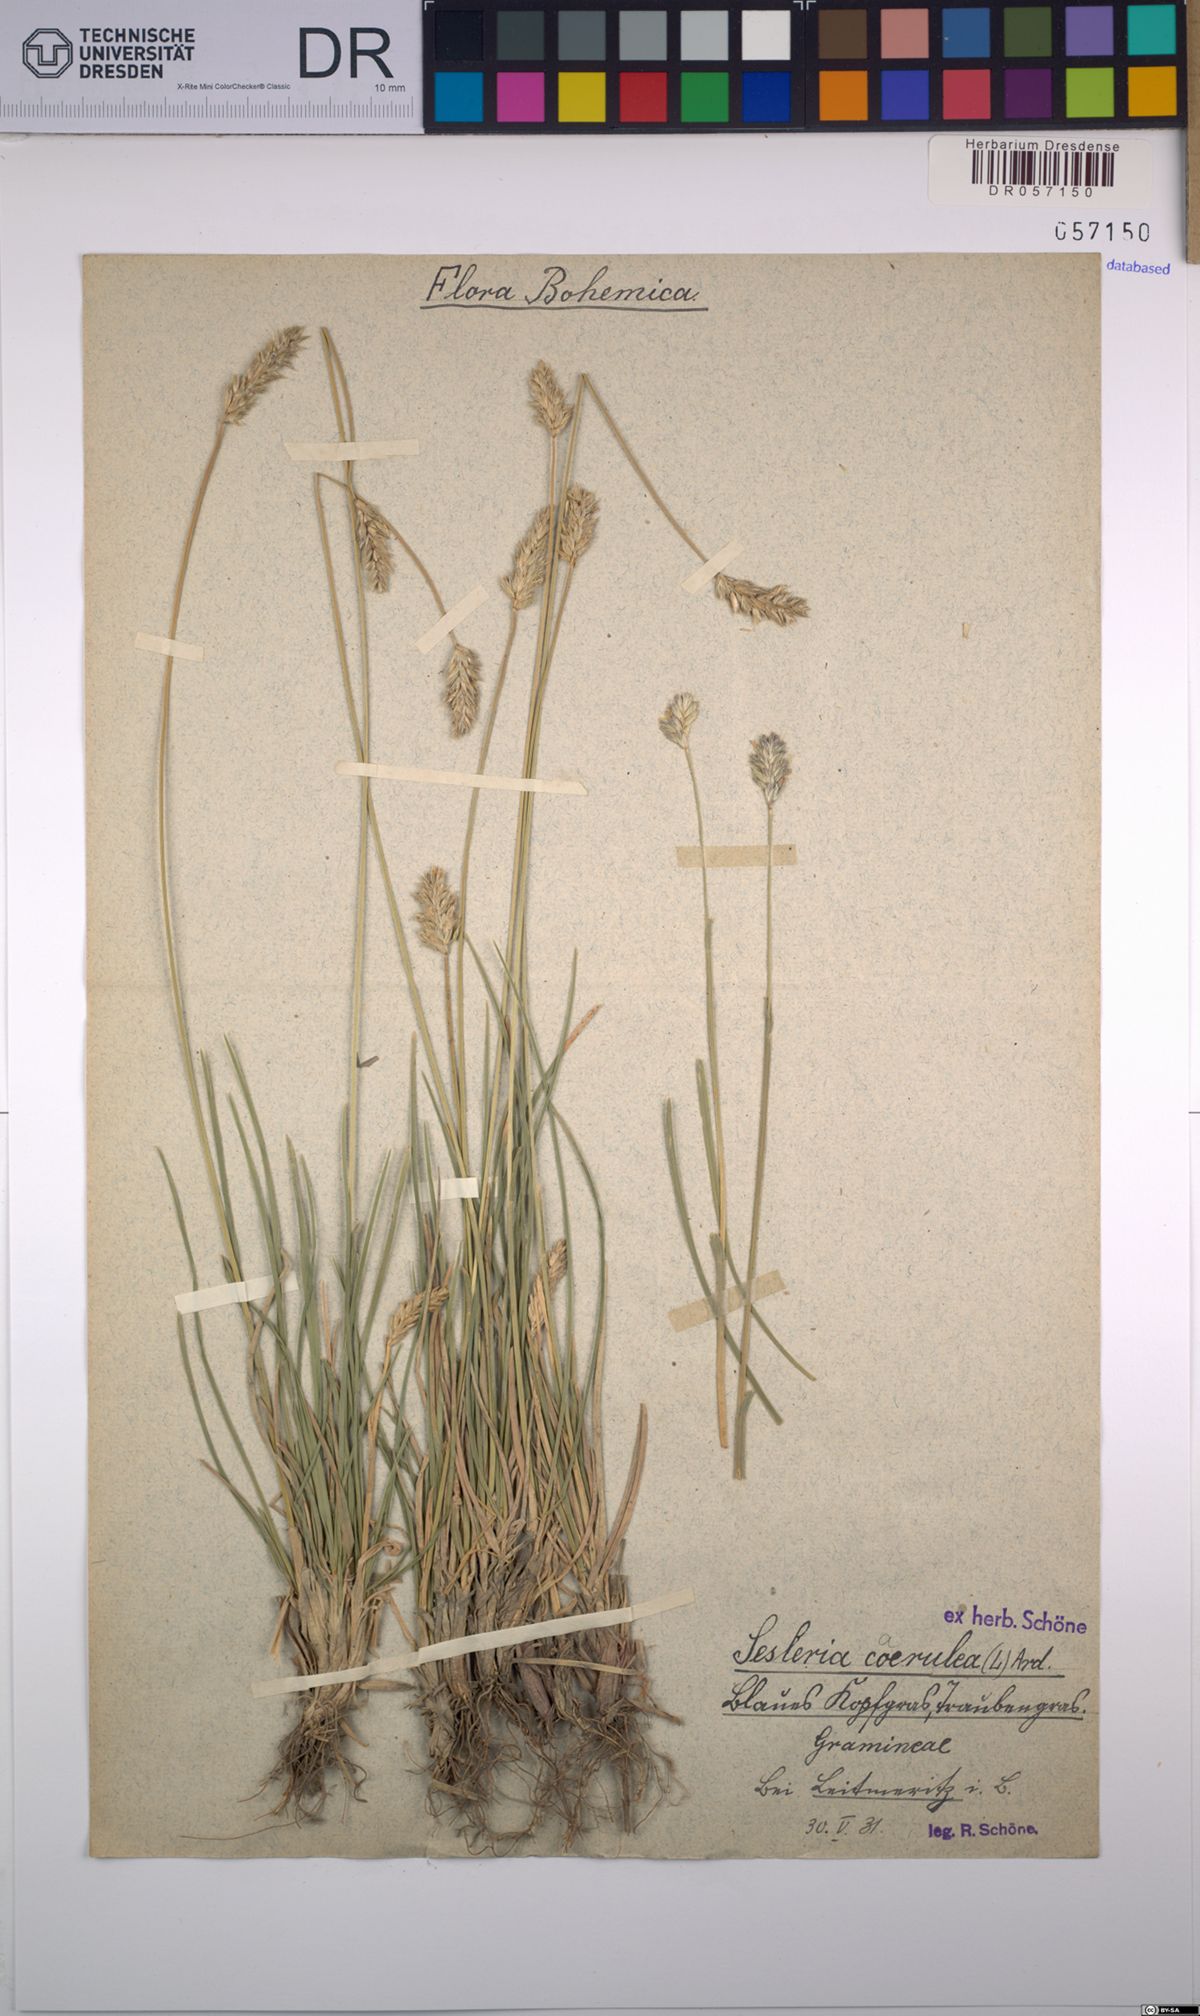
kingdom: Plantae
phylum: Tracheophyta
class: Liliopsida
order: Poales
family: Poaceae
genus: Sesleria
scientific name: Sesleria caerulea
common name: Blue moor-grass
